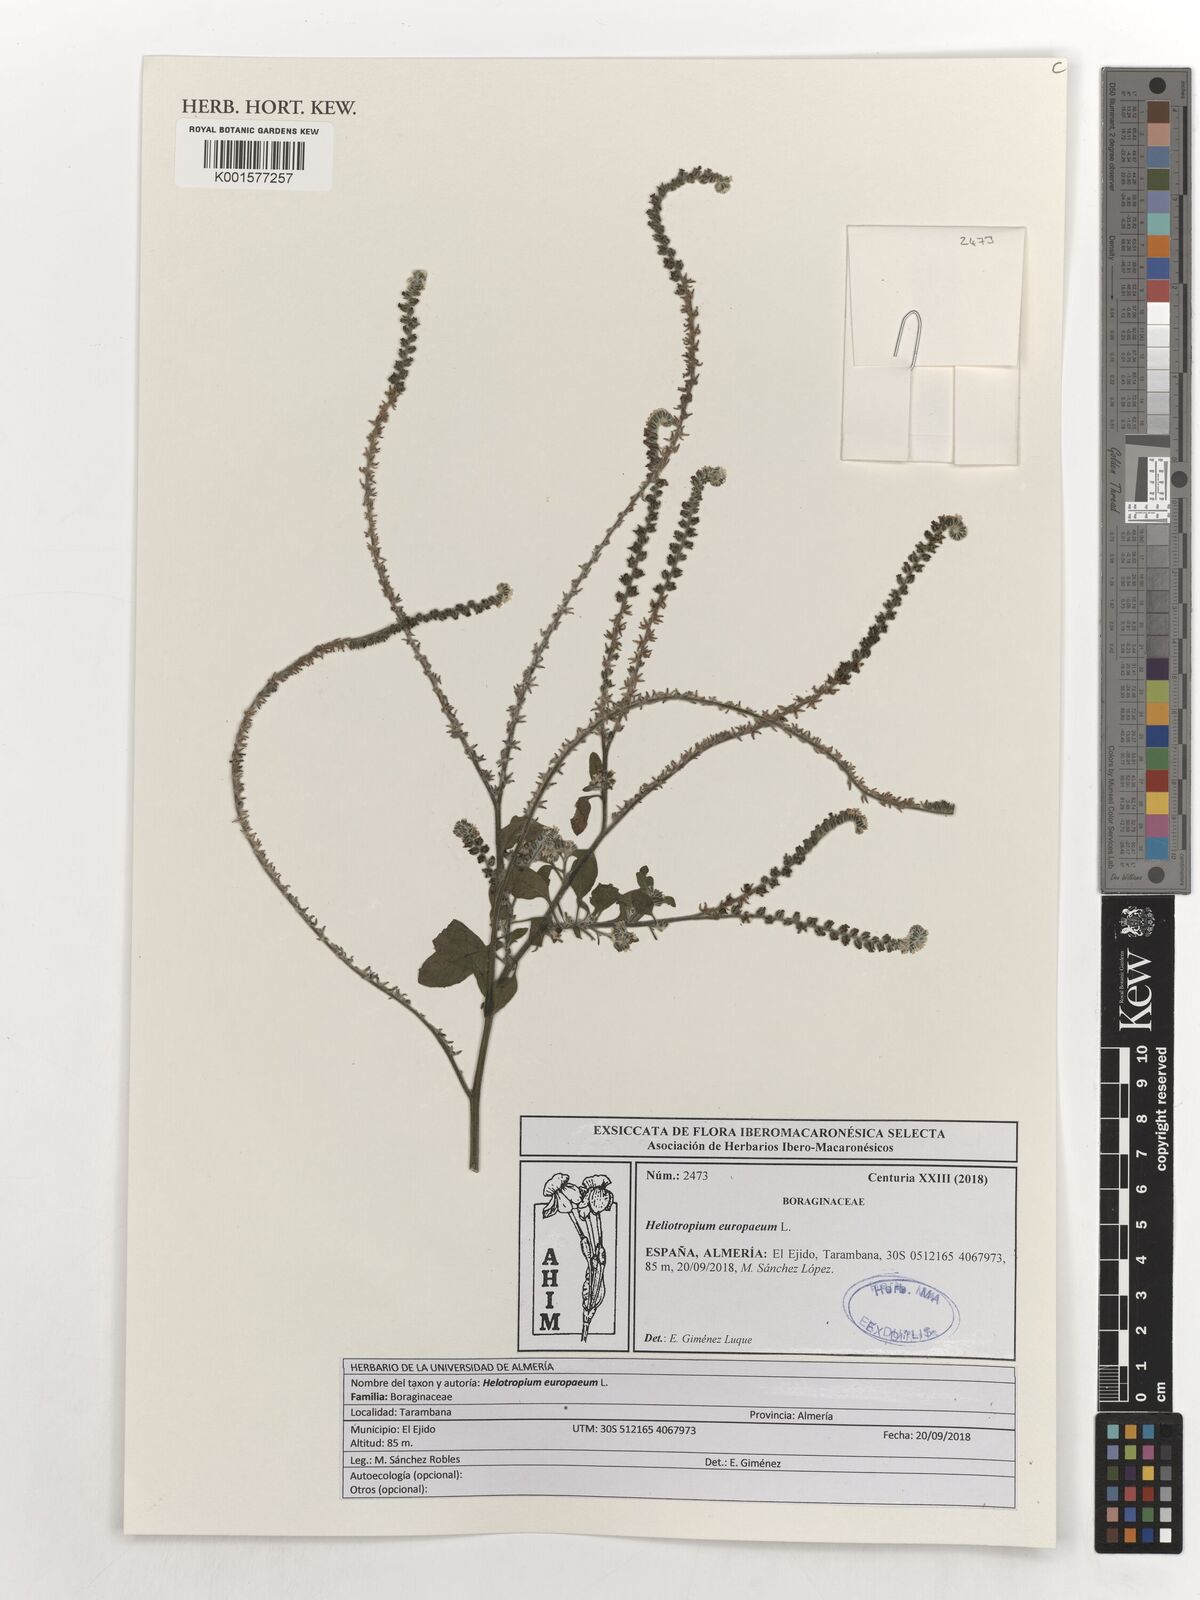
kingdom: Plantae
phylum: Tracheophyta
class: Magnoliopsida
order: Boraginales
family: Heliotropiaceae
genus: Heliotropium
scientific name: Heliotropium europaeum
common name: European heliotrope
